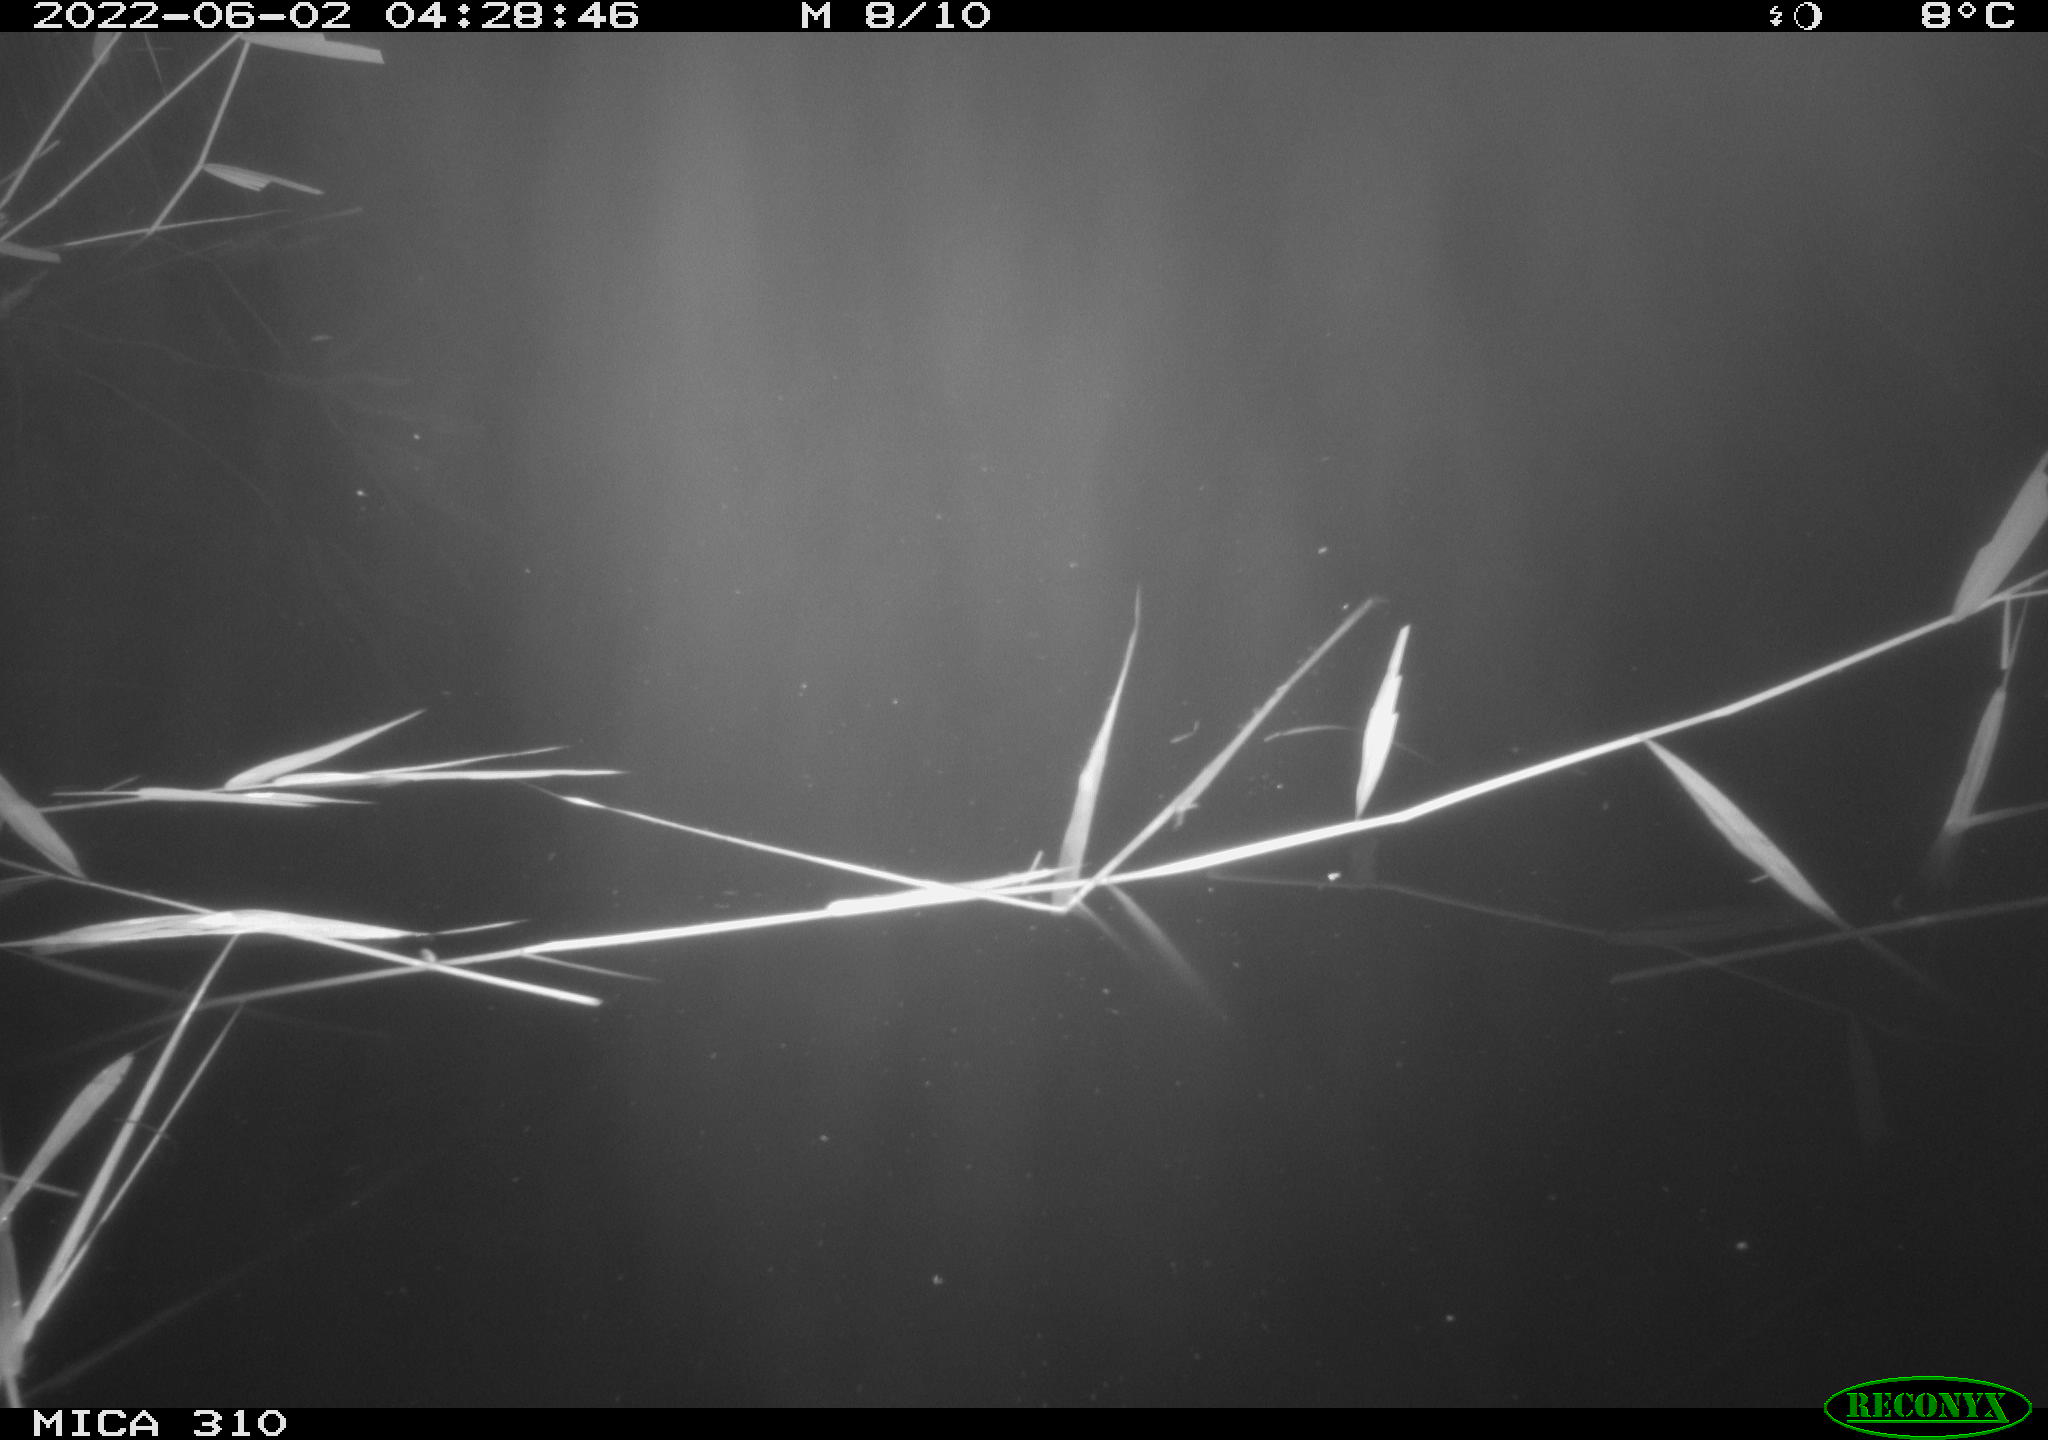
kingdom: Animalia
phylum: Chordata
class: Aves
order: Gruiformes
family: Rallidae
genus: Fulica
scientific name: Fulica atra
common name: Eurasian coot
